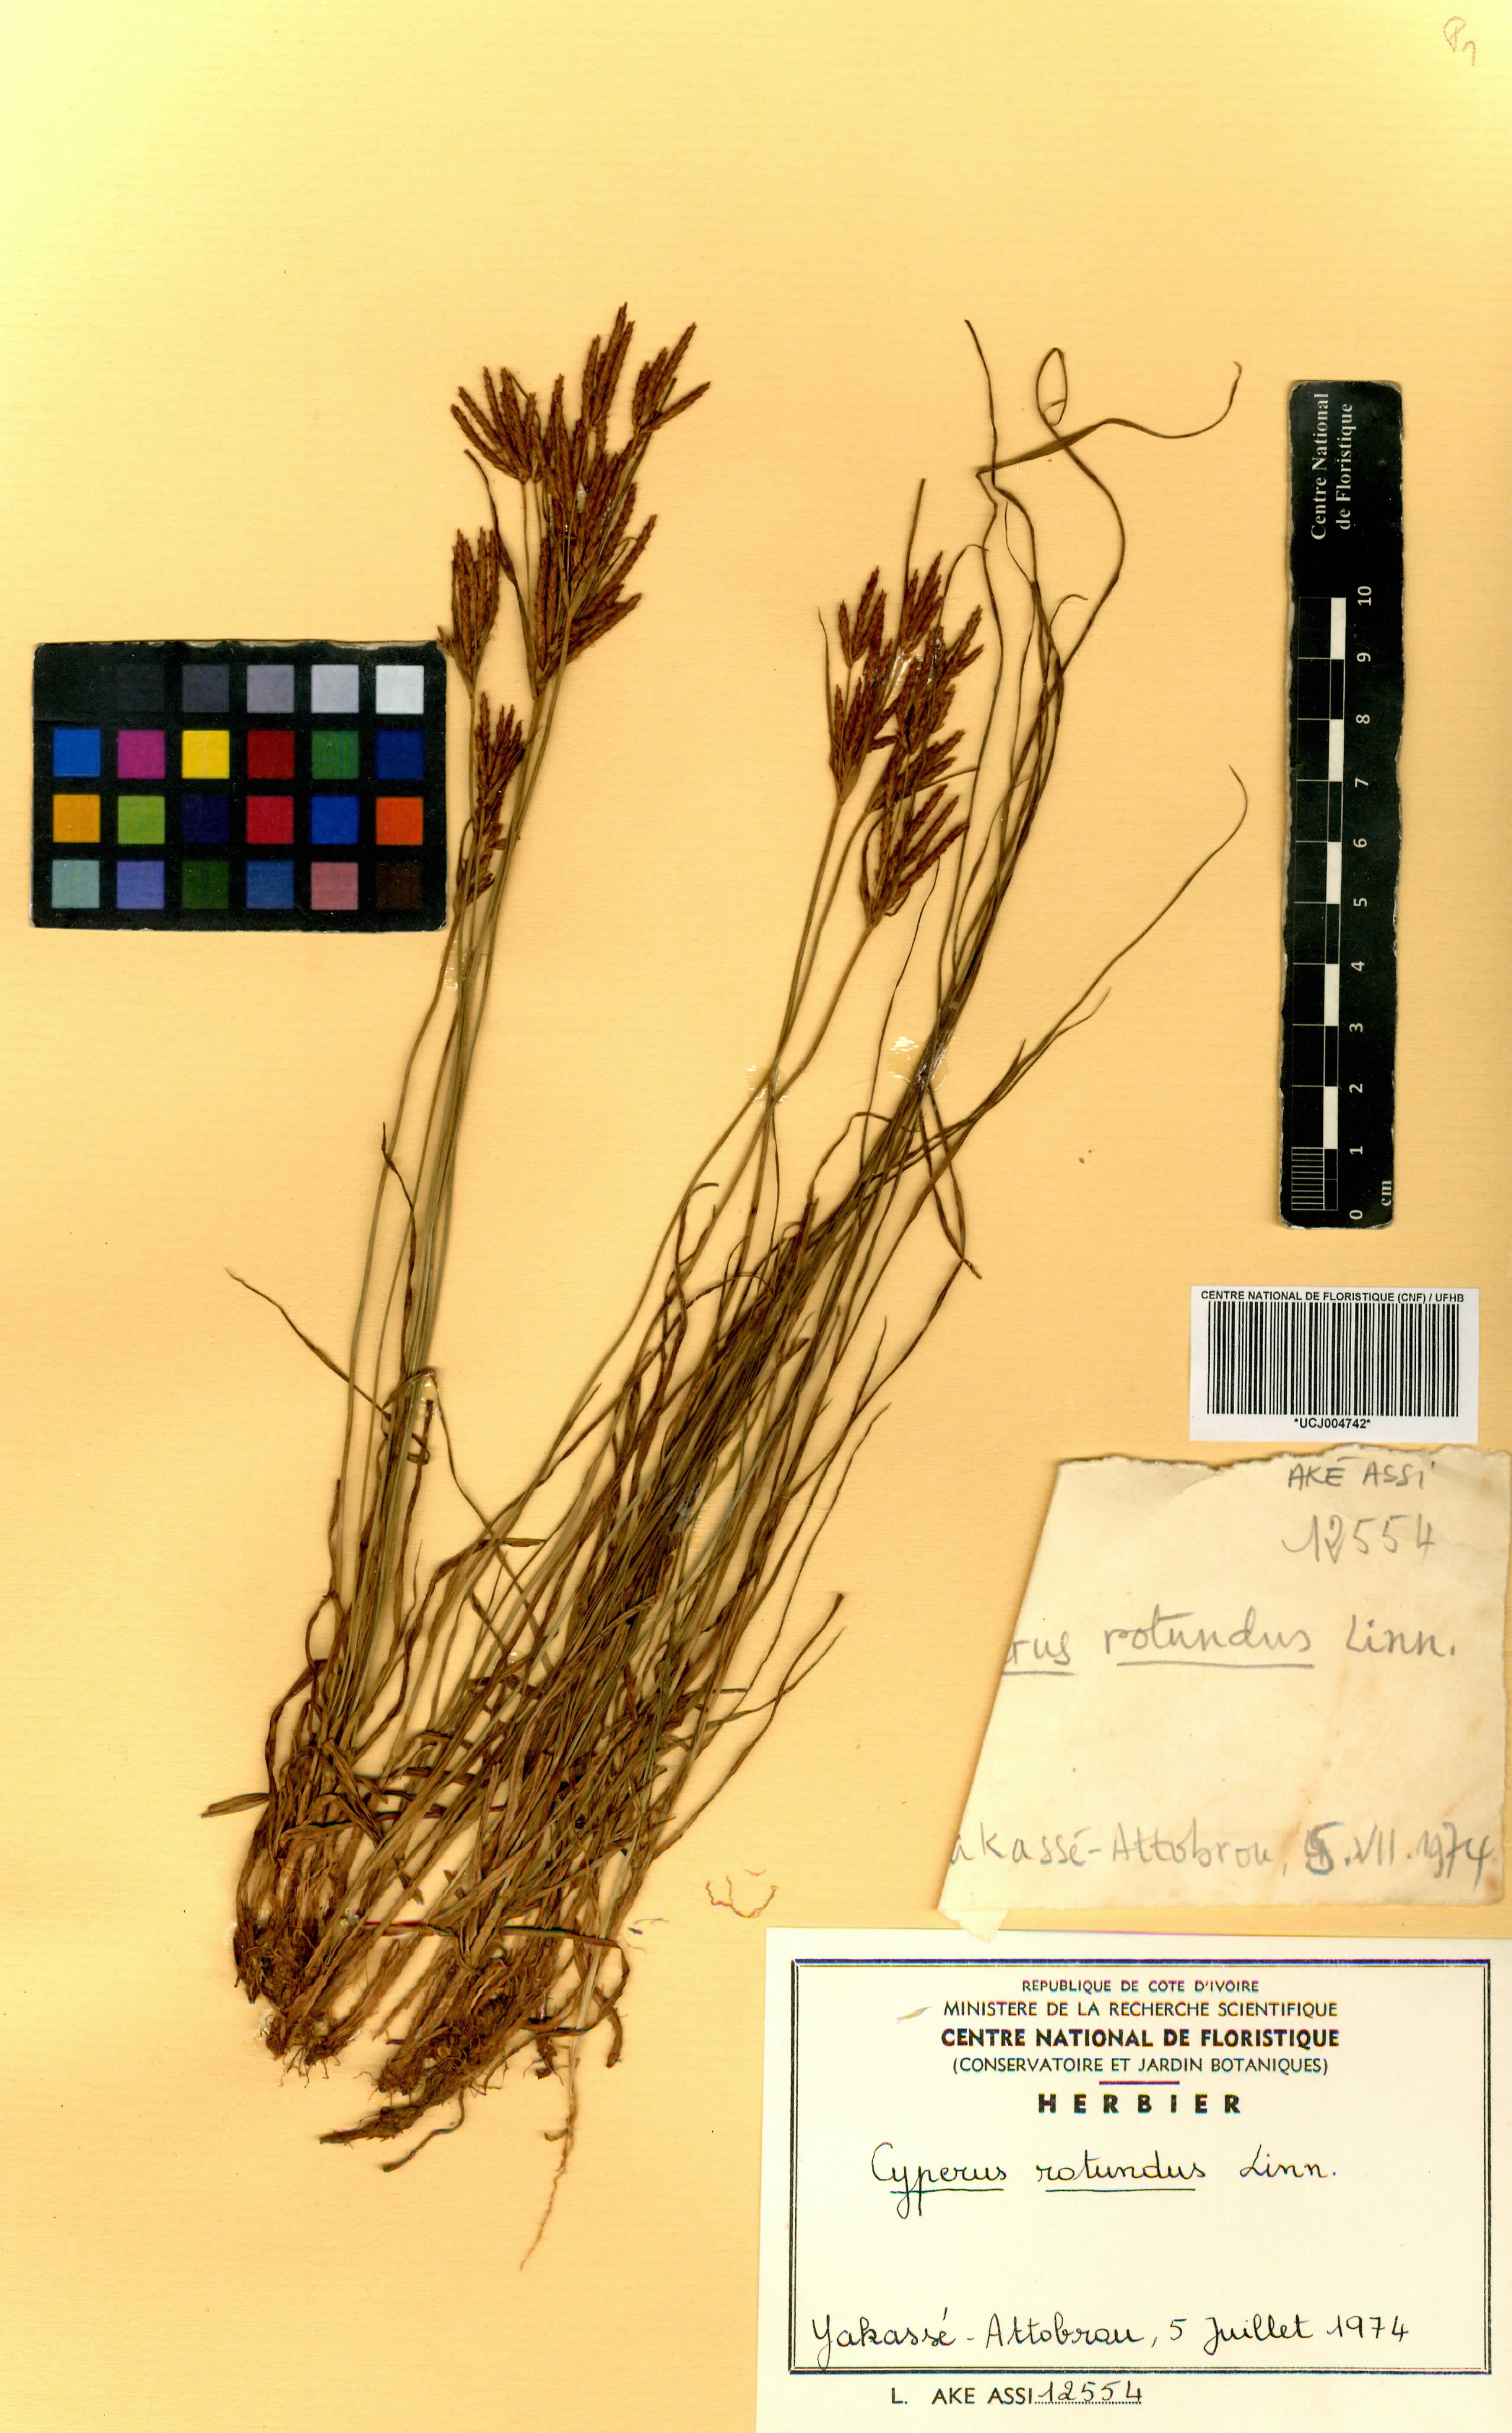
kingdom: Plantae
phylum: Tracheophyta
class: Liliopsida
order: Poales
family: Cyperaceae
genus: Cyperus
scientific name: Cyperus rotundus
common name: Nutgrass
